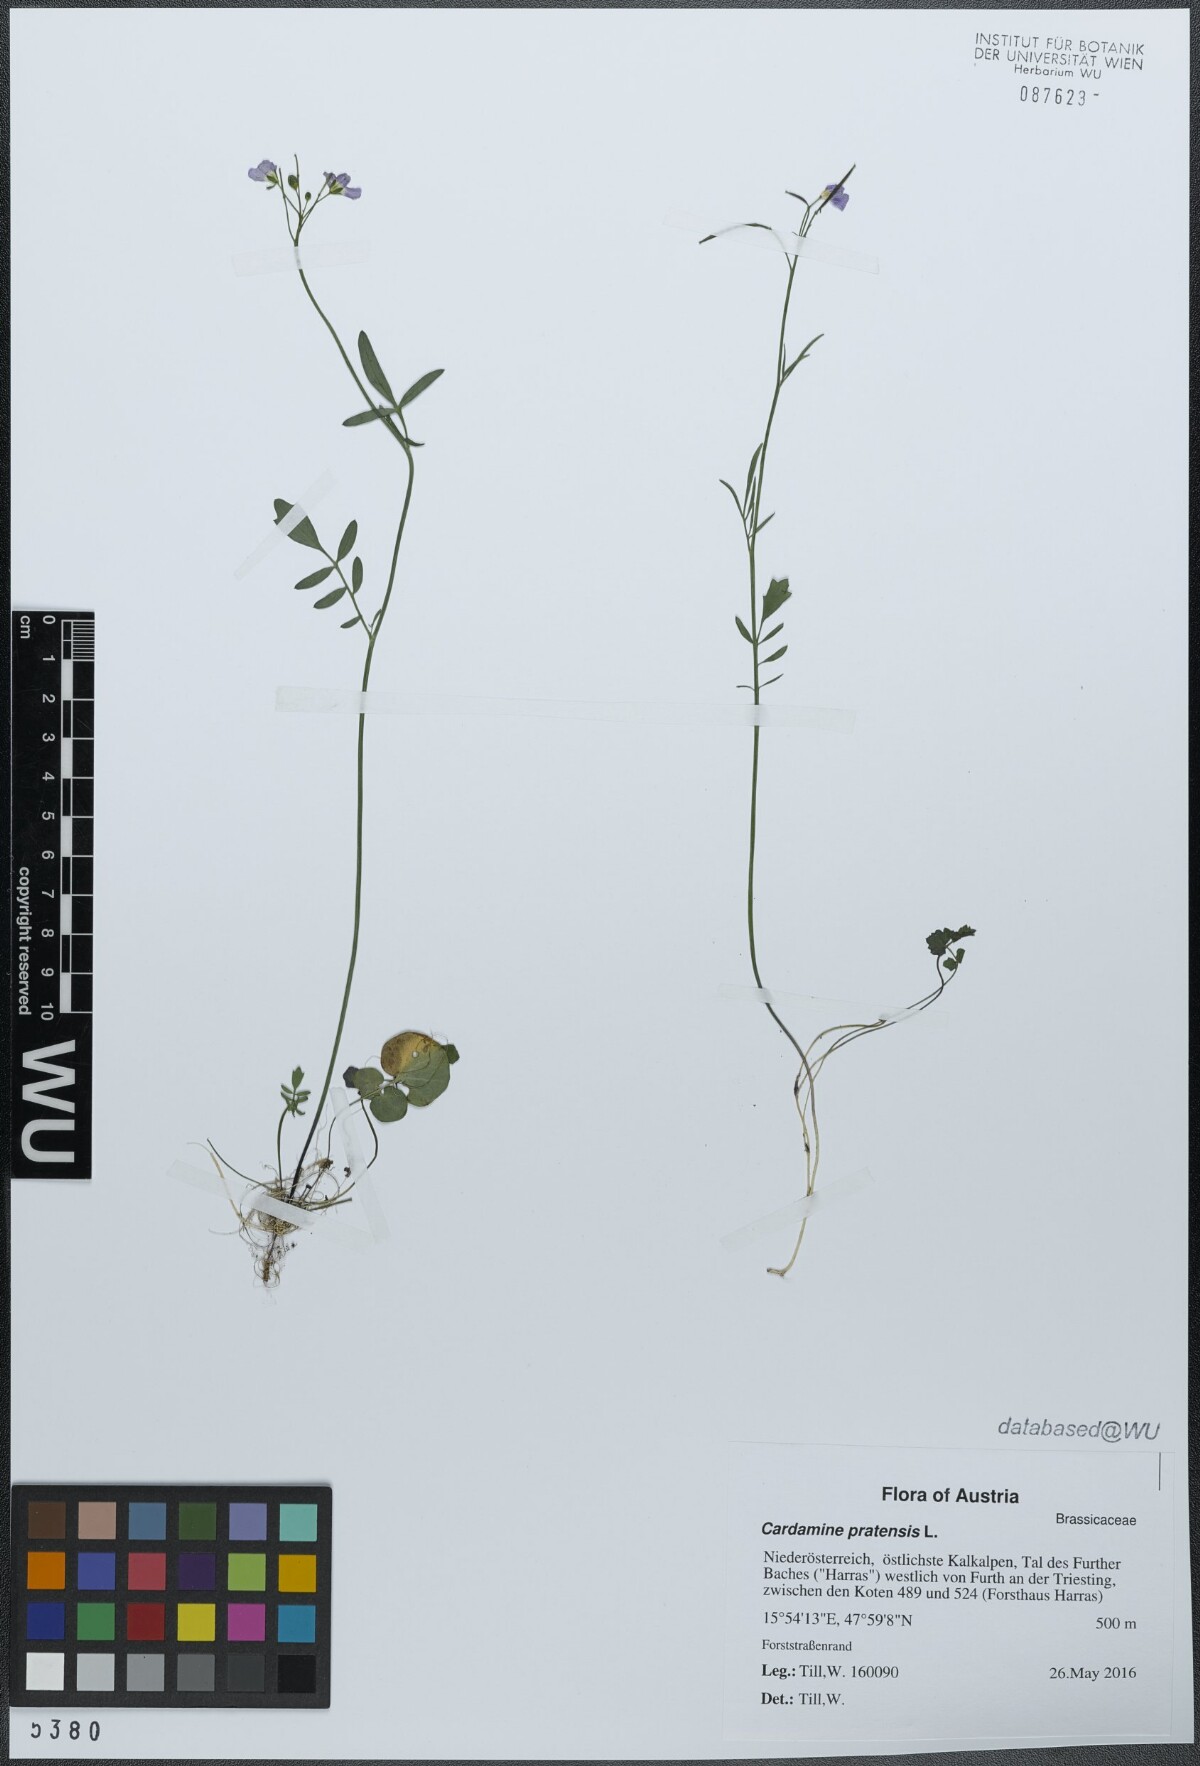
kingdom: Plantae
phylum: Tracheophyta
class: Magnoliopsida
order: Brassicales
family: Brassicaceae
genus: Cardamine
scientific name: Cardamine pratensis
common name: Cuckoo flower
